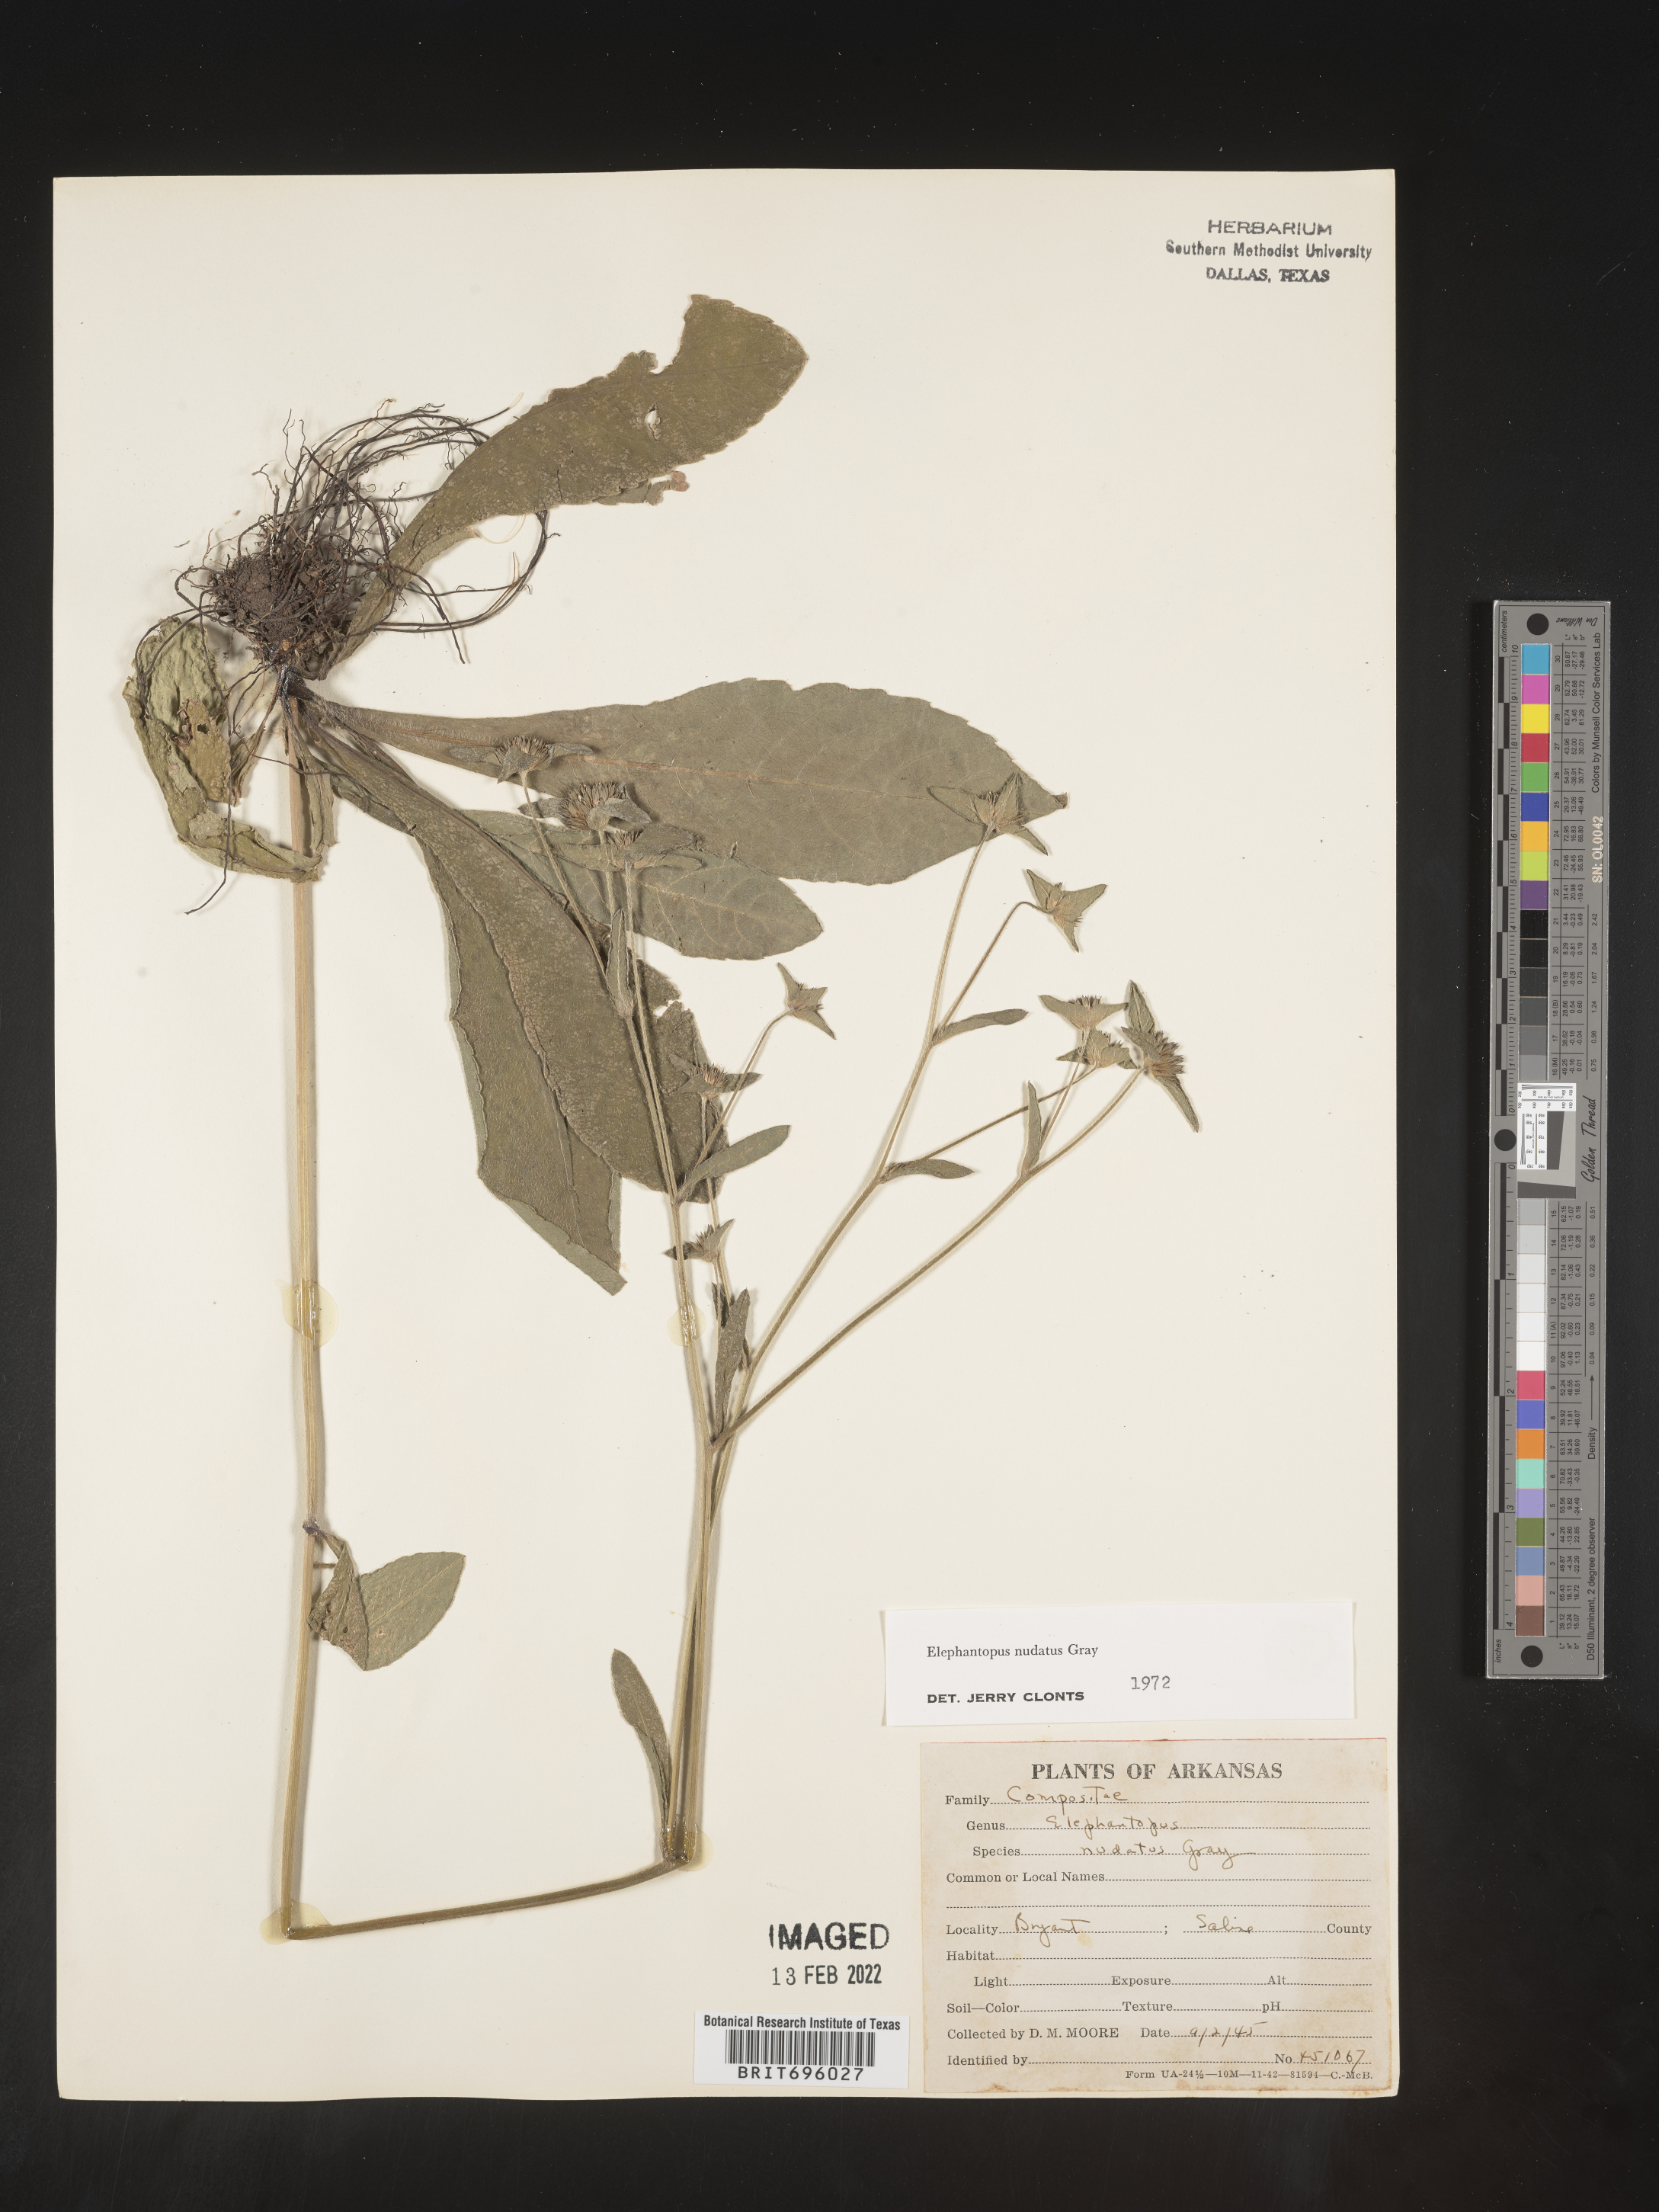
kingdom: Plantae
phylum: Tracheophyta
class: Magnoliopsida
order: Asterales
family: Asteraceae
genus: Elephantopus
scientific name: Elephantopus nudatus
